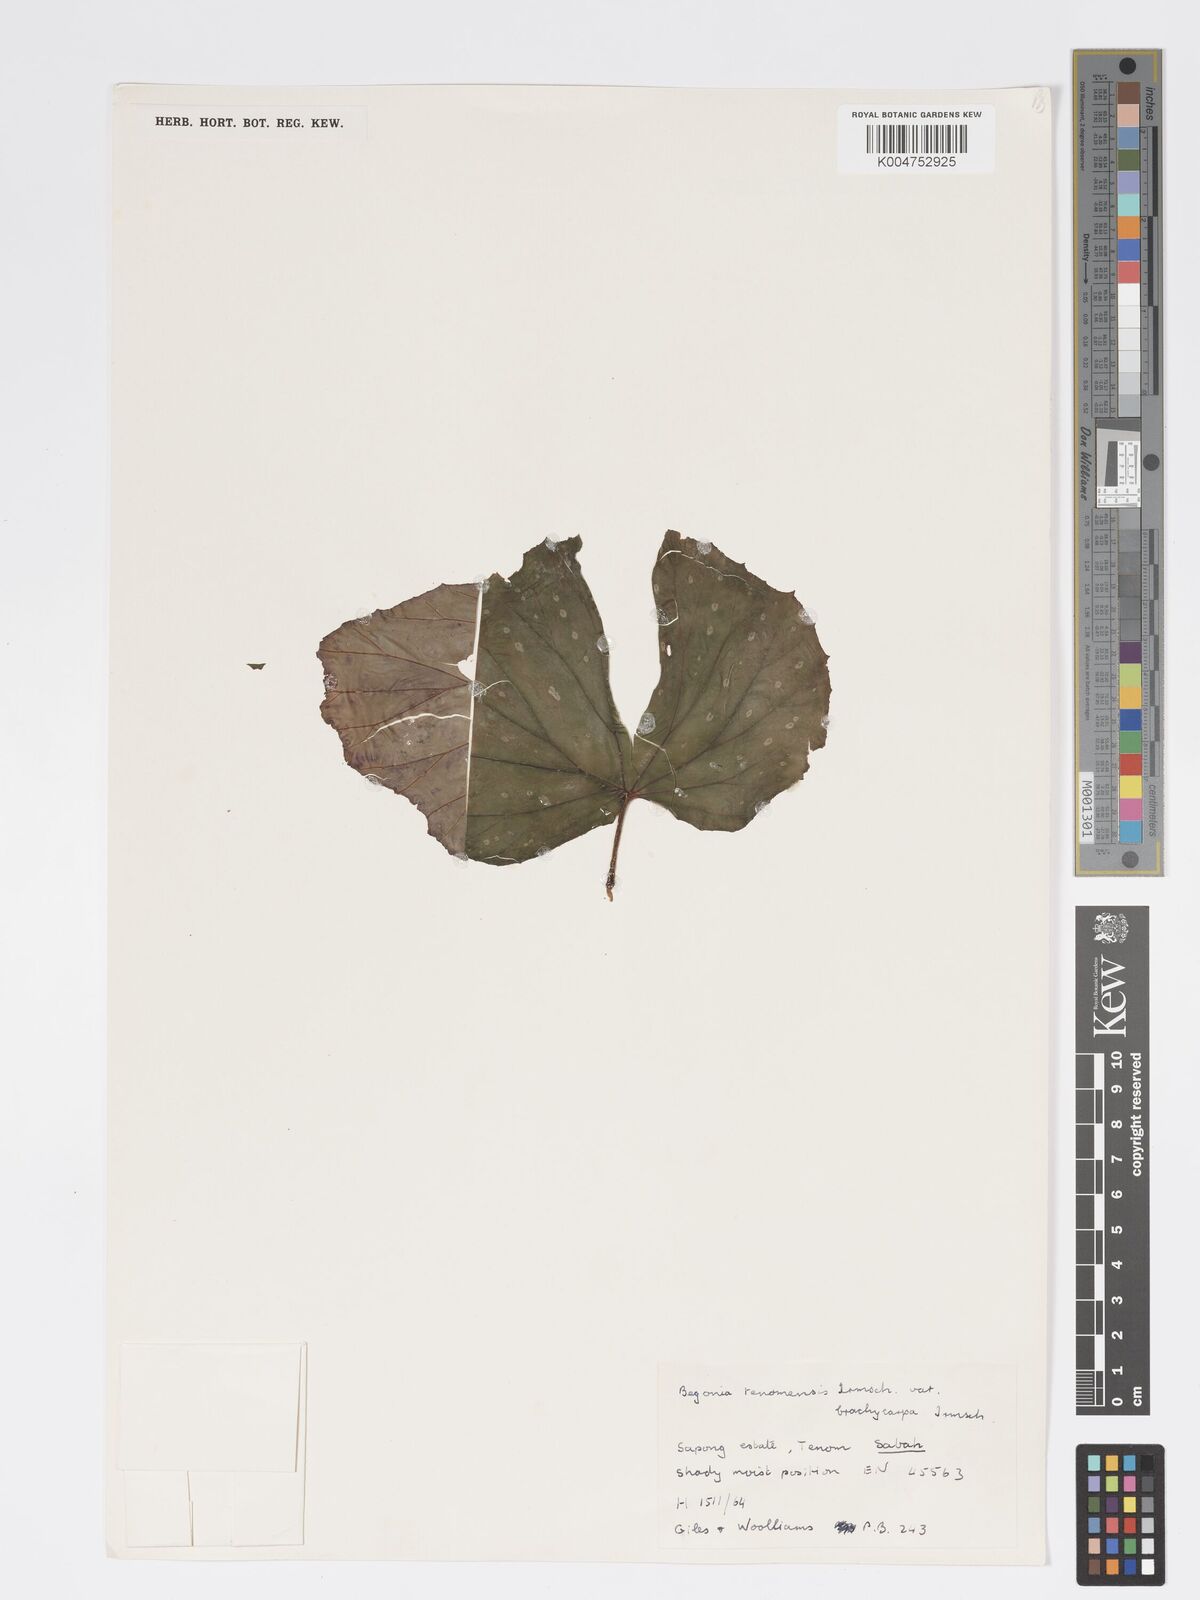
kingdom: Plantae
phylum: Tracheophyta
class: Magnoliopsida
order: Cucurbitales
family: Begoniaceae
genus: Begonia
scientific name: Begonia
